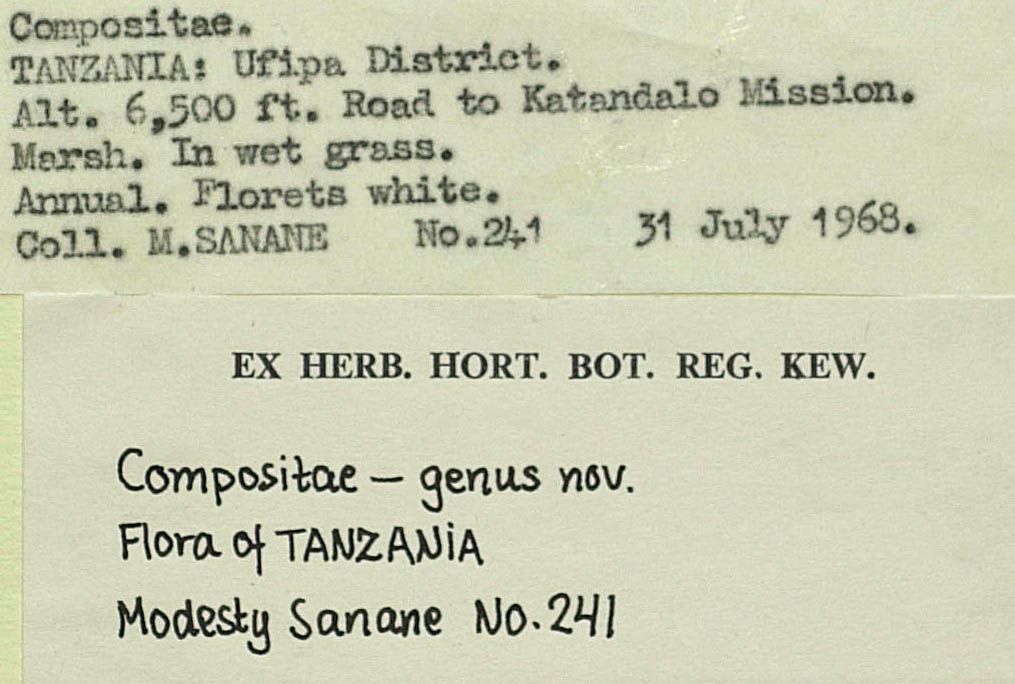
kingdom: Plantae
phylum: Tracheophyta
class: Magnoliopsida
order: Asterales
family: Asteraceae
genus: Stenops
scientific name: Stenops helodes
